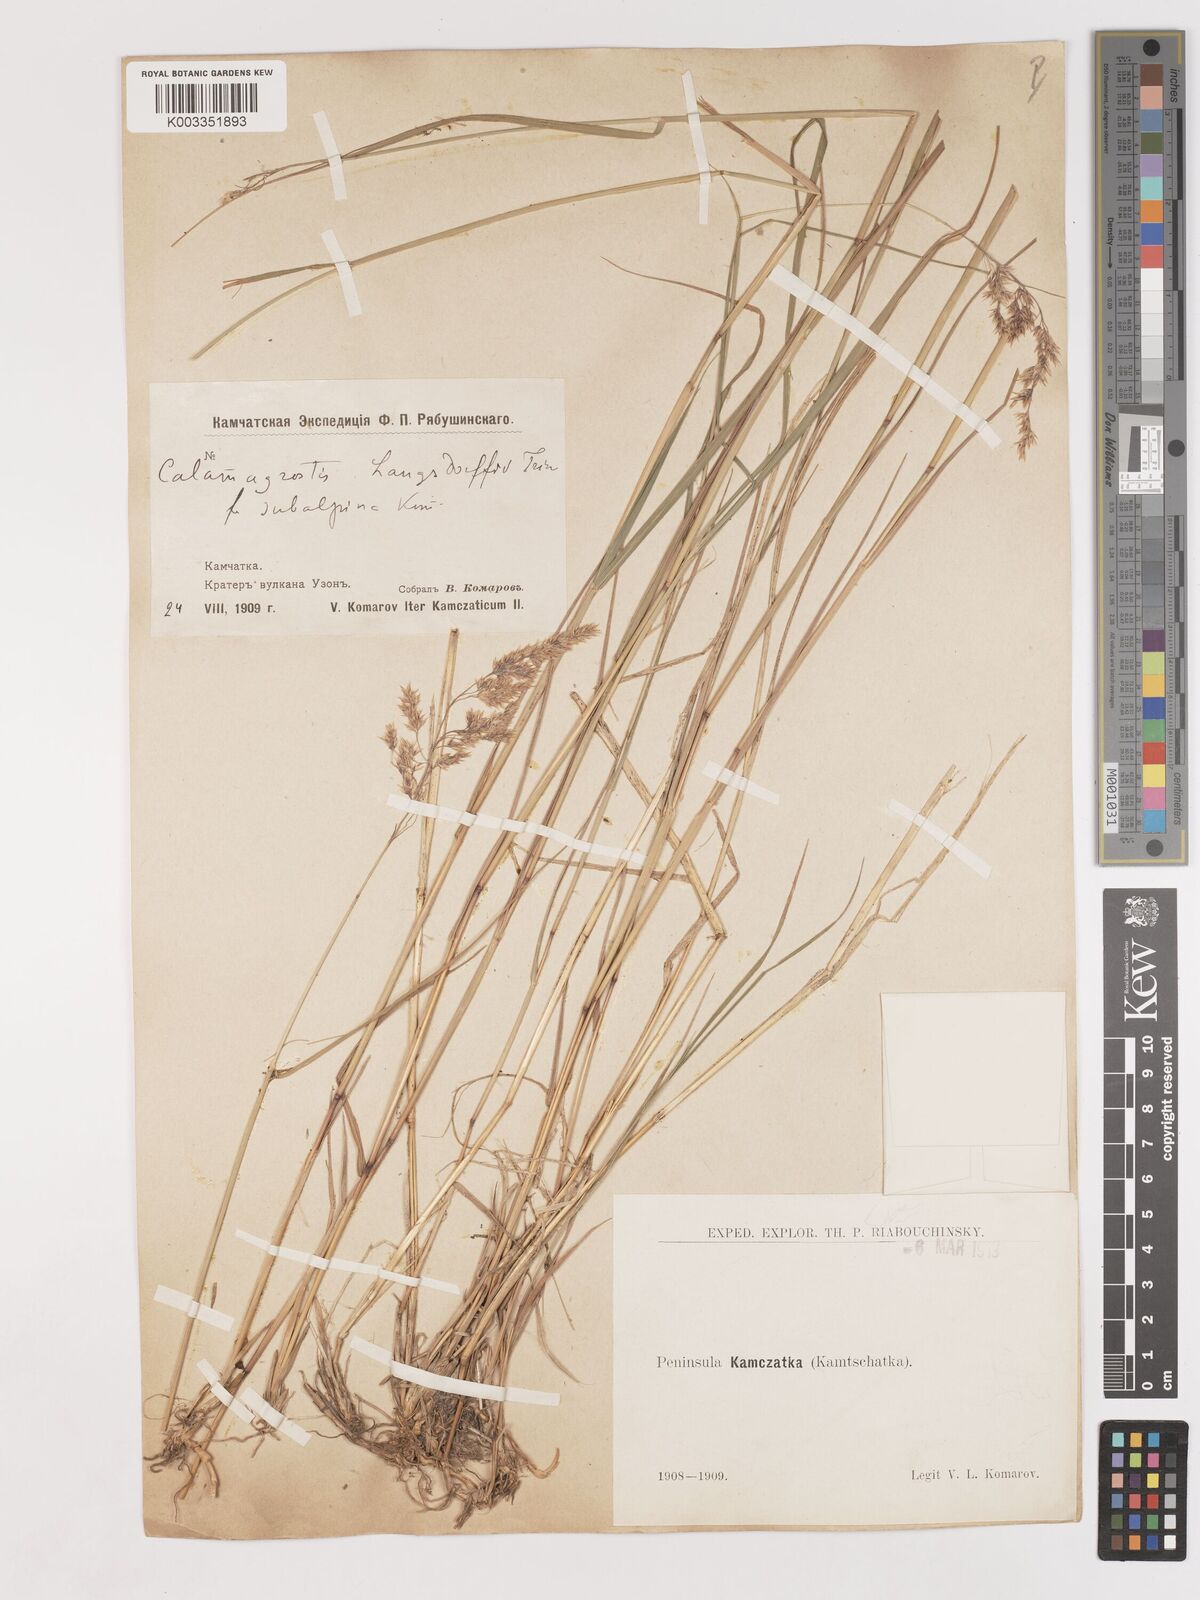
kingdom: Plantae
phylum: Tracheophyta
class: Liliopsida
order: Poales
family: Poaceae
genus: Calamagrostis
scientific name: Calamagrostis purpurea
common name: Scandinavian small-reed
